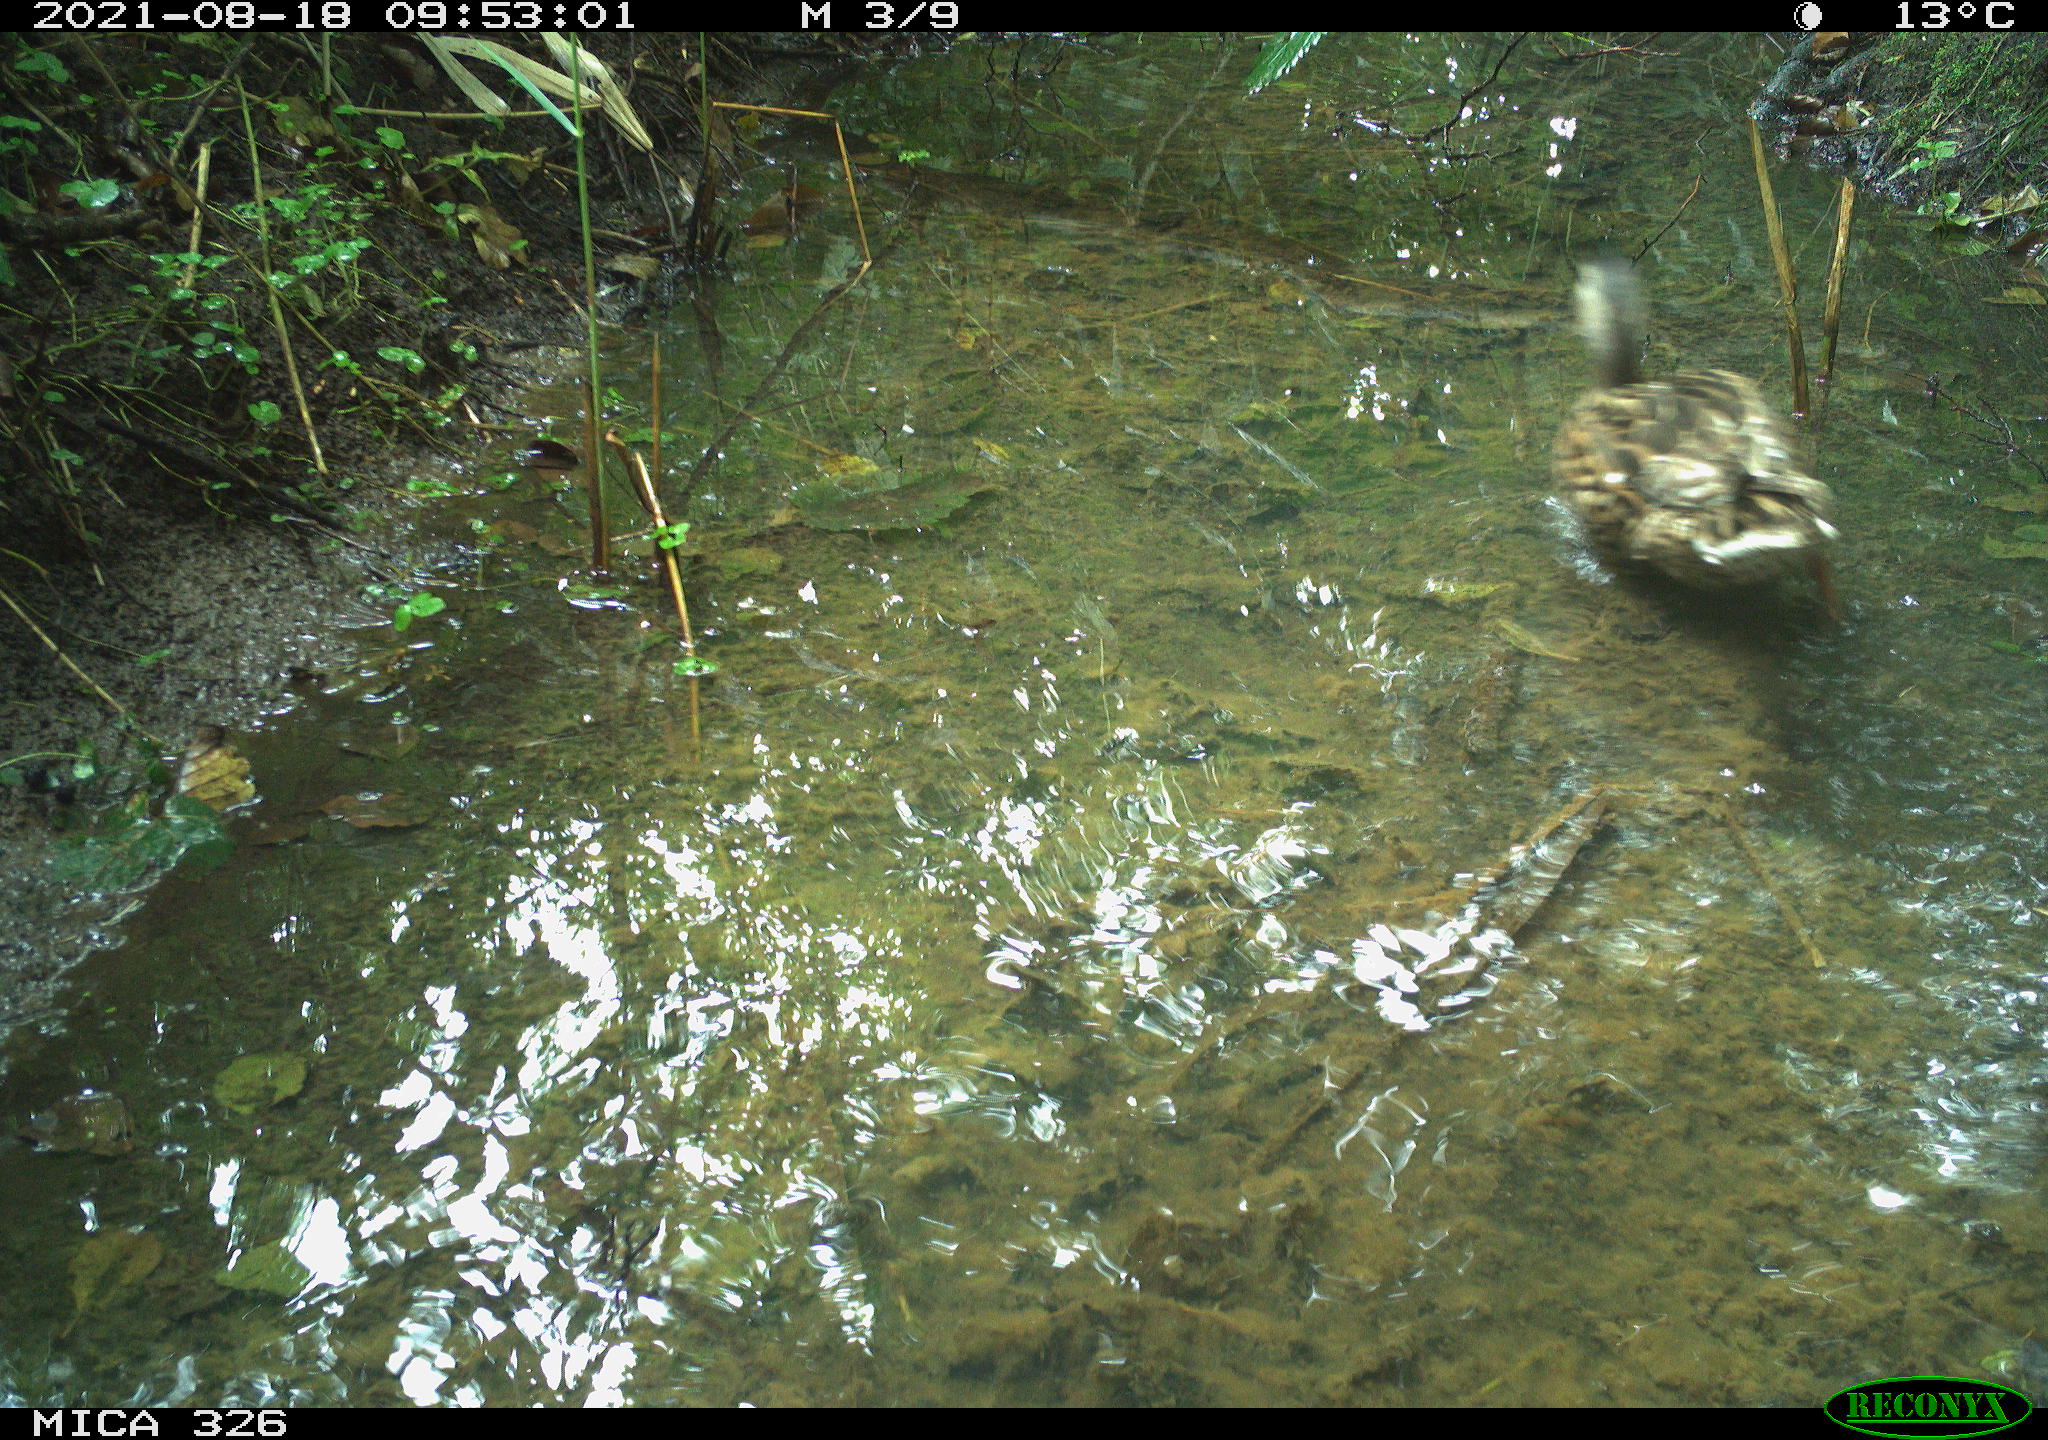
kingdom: Animalia
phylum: Chordata
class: Aves
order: Anseriformes
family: Anatidae
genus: Anas
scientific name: Anas platyrhynchos
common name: Mallard
